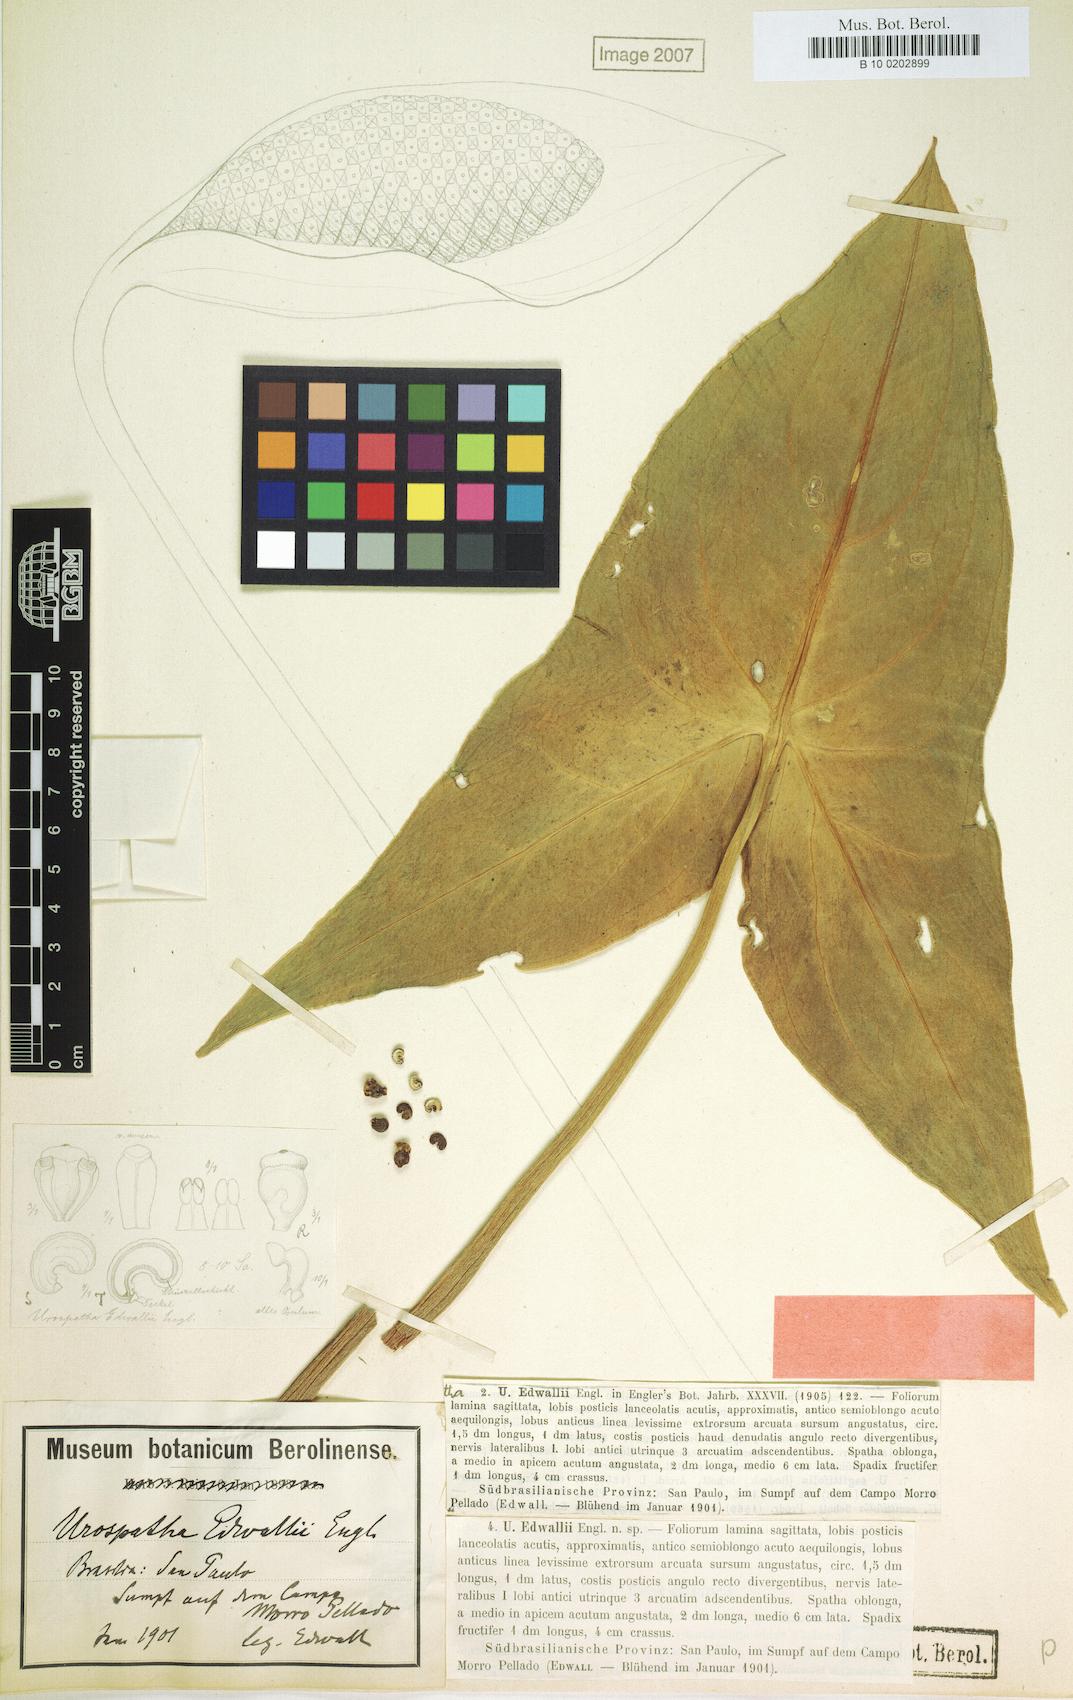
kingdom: Plantae
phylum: Tracheophyta
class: Liliopsida
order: Alismatales
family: Araceae
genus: Urospatha
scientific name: Urospatha edwallii
